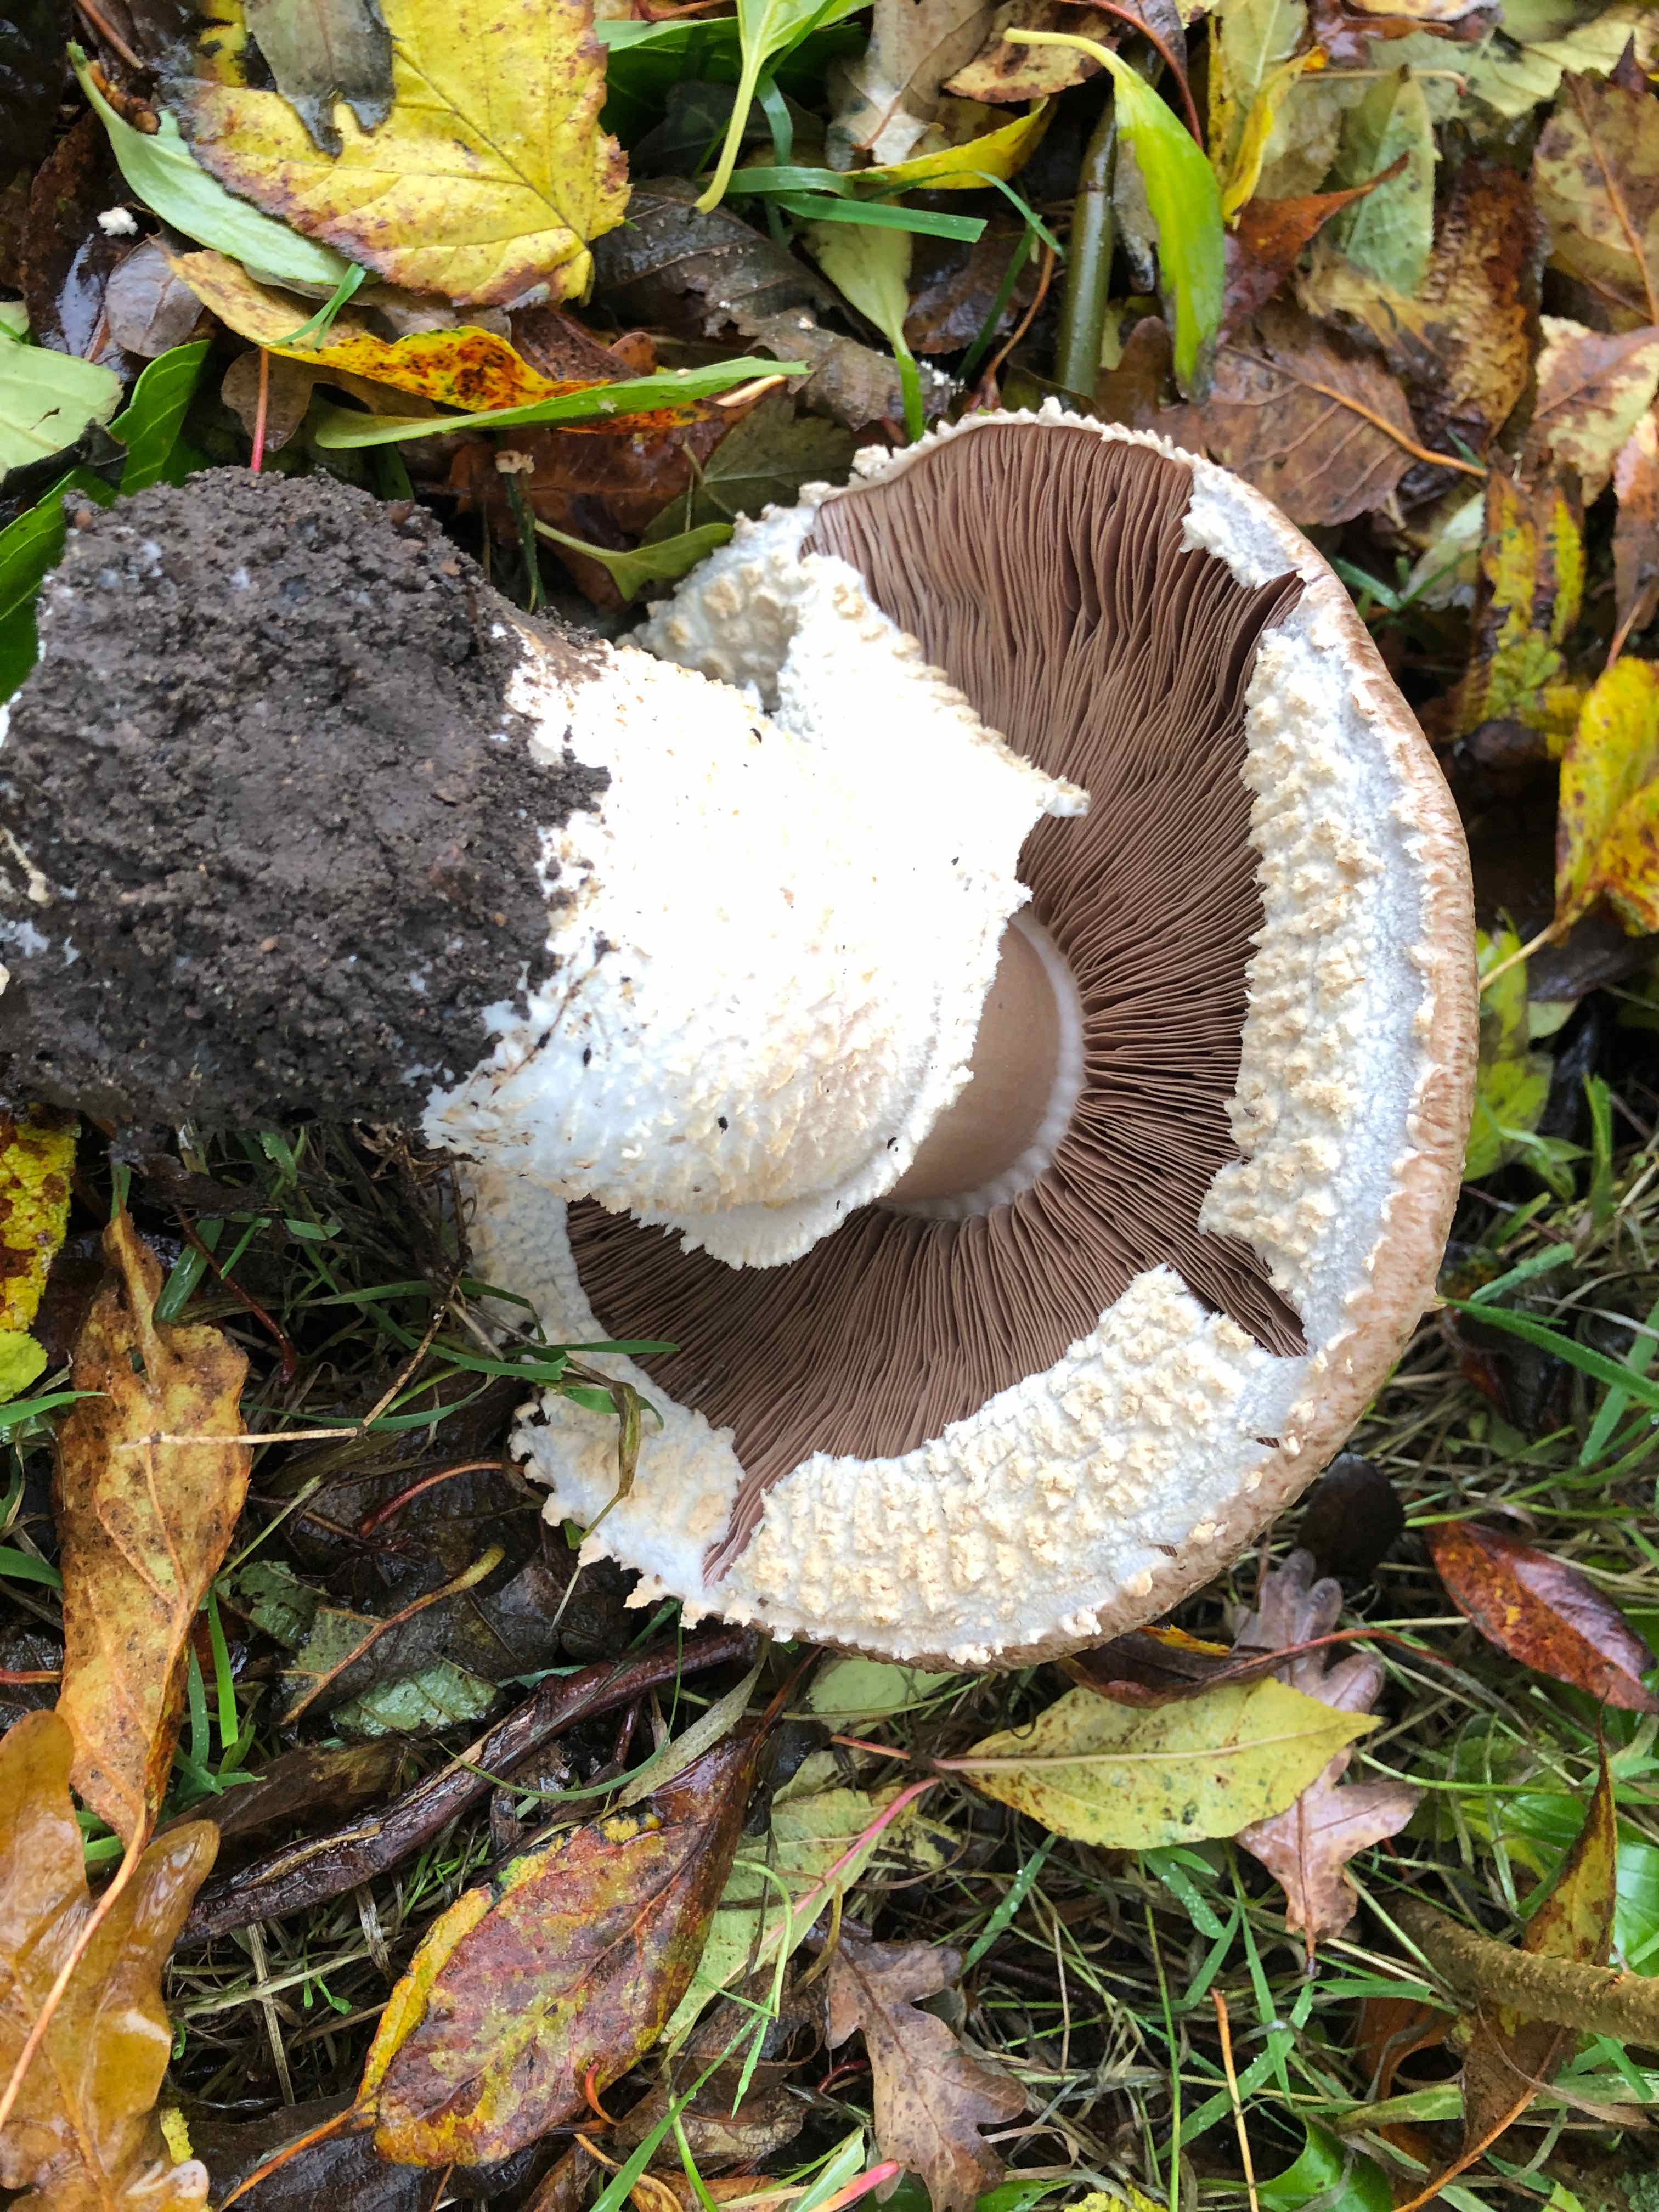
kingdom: Fungi
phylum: Basidiomycota
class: Agaricomycetes
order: Agaricales
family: Agaricaceae
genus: Agaricus
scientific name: Agaricus augustus
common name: prægtig champignon
